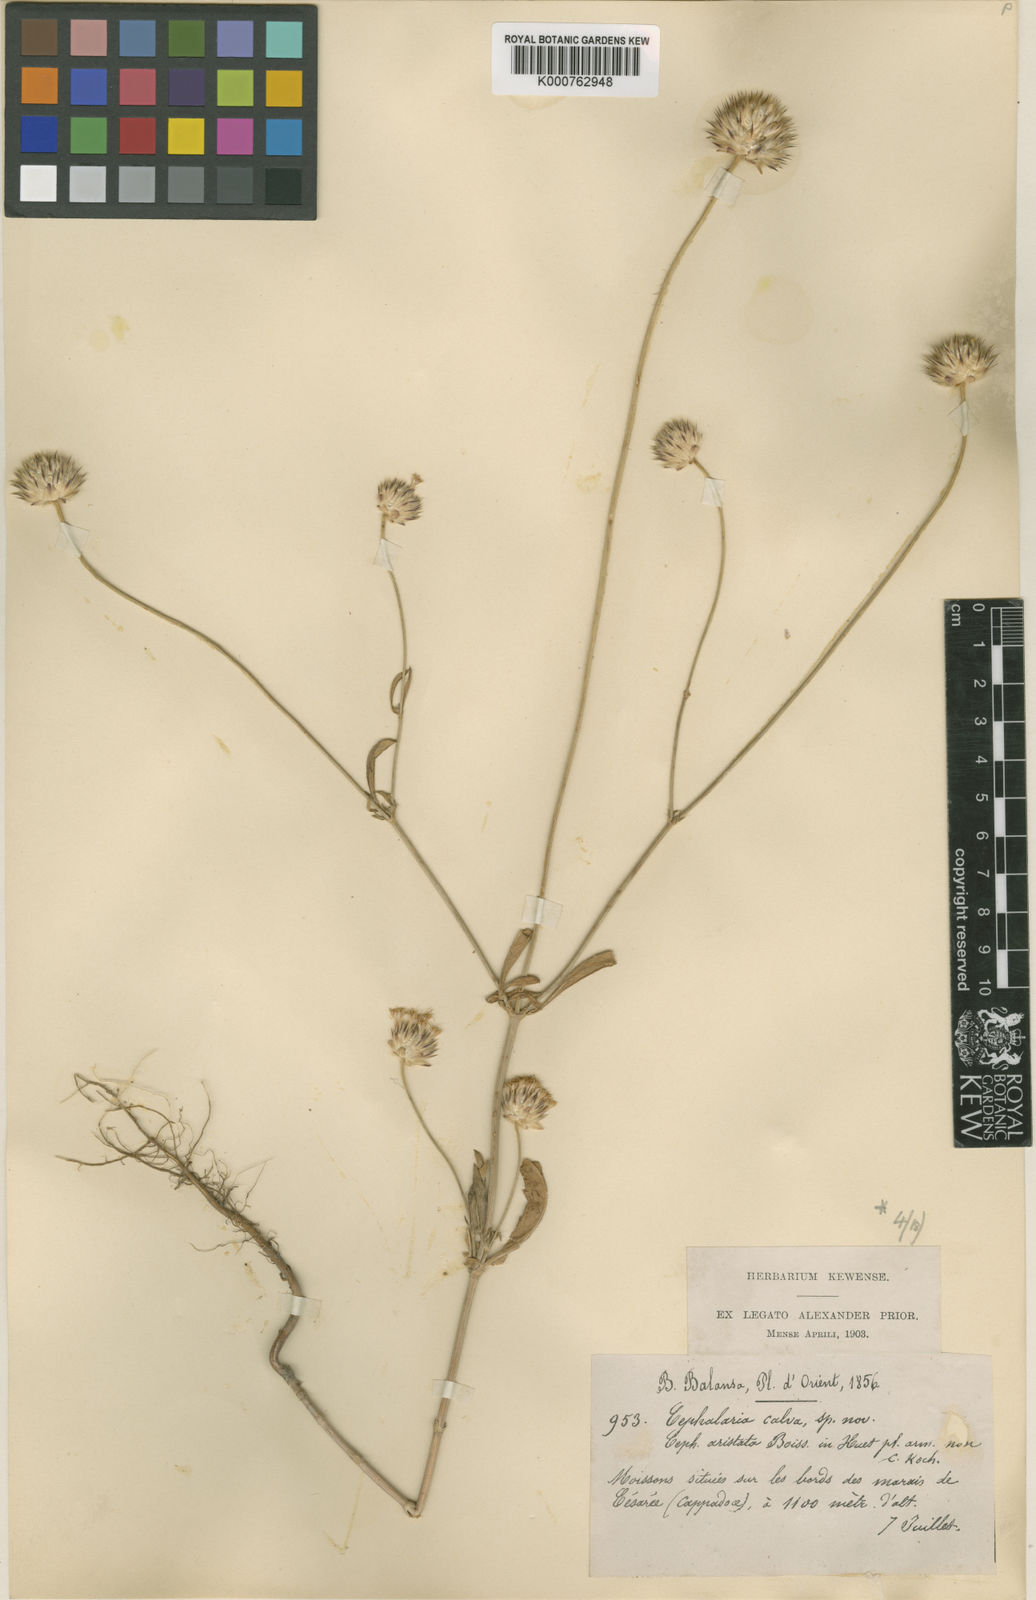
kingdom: Plantae
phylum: Tracheophyta
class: Magnoliopsida
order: Dipsacales
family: Caprifoliaceae
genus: Cephalaria
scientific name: Cephalaria aristata
